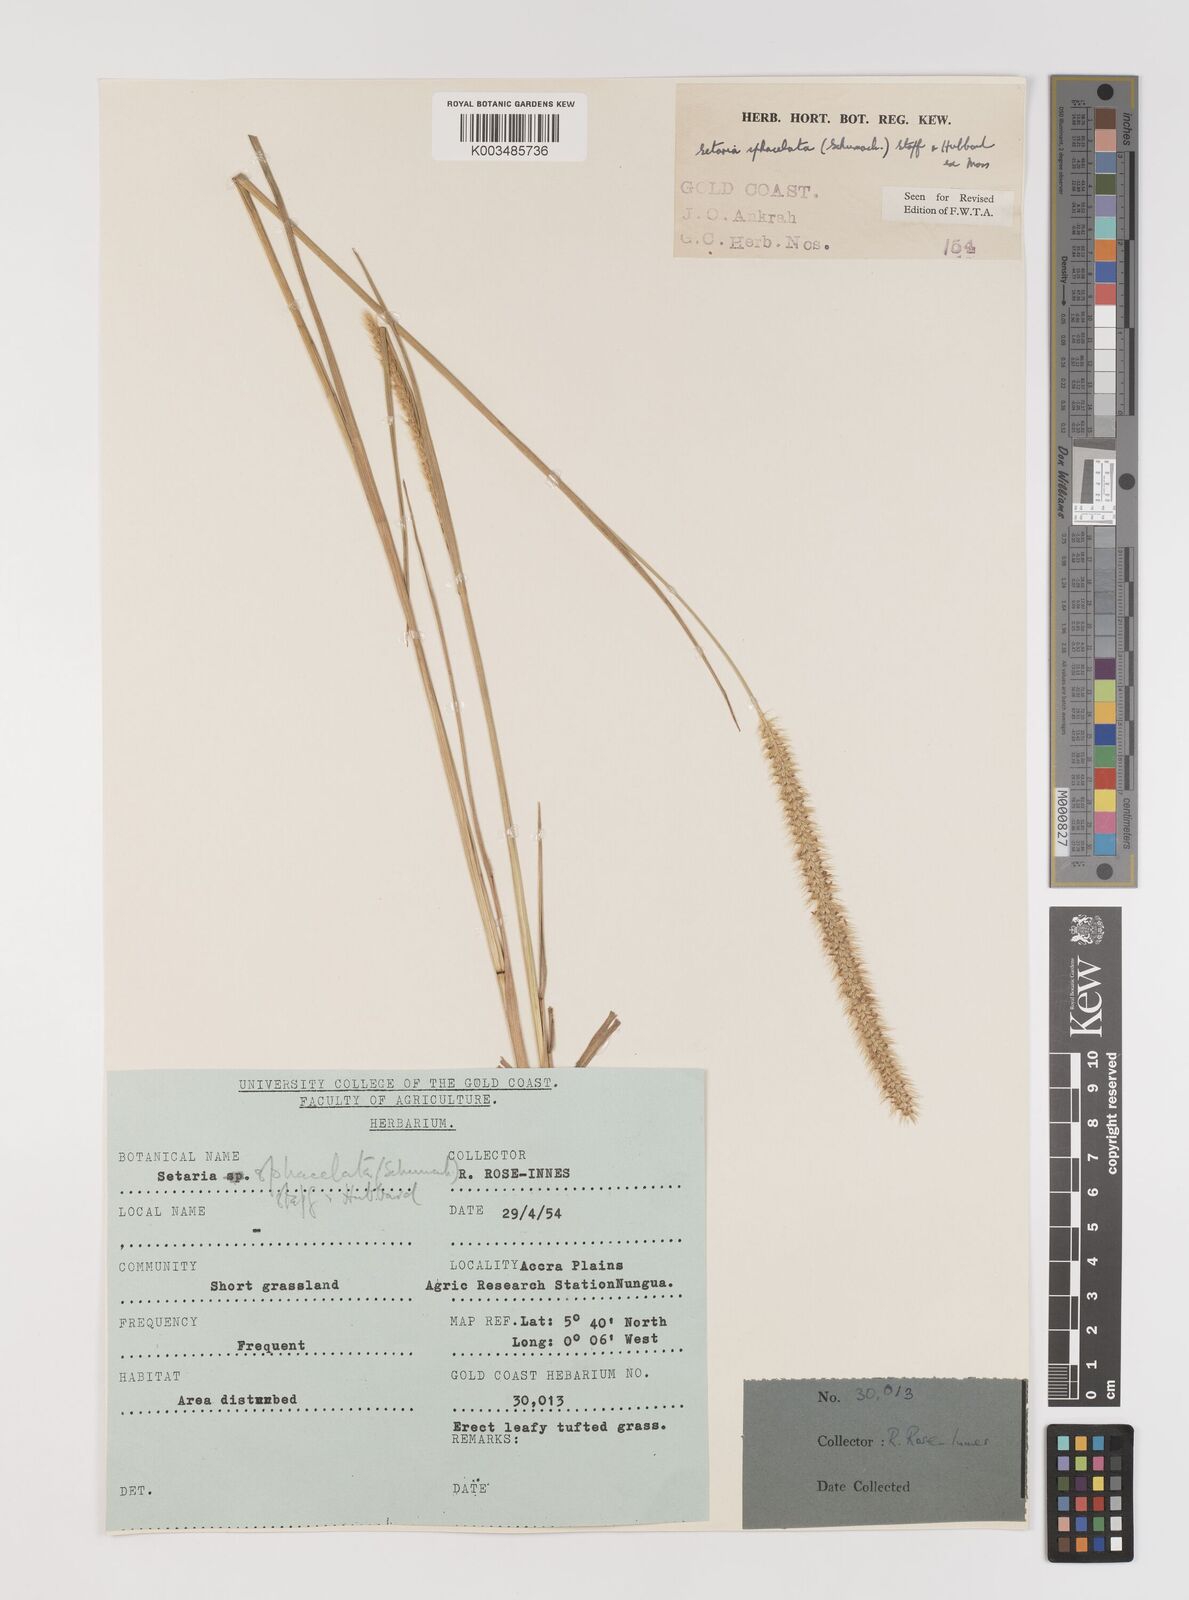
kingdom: Plantae
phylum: Tracheophyta
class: Liliopsida
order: Poales
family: Poaceae
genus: Setaria
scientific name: Setaria sphacelata
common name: African bristlegrass
